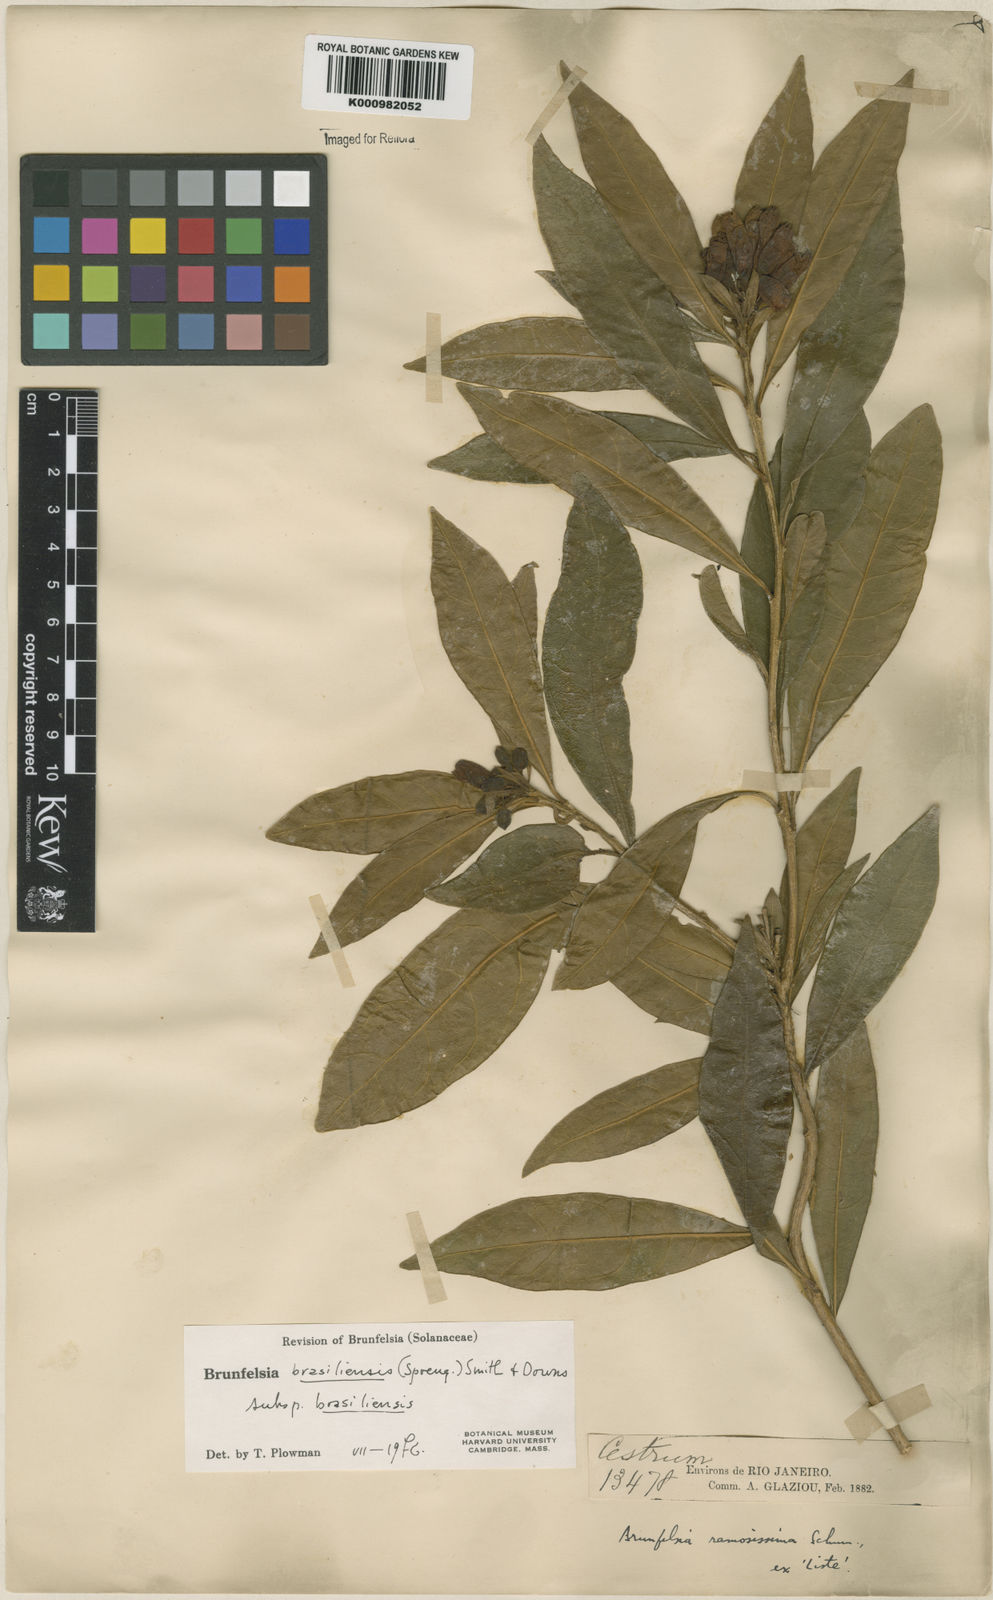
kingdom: Plantae
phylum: Tracheophyta
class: Magnoliopsida
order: Solanales
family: Solanaceae
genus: Brunfelsia
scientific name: Brunfelsia brasiliensis
